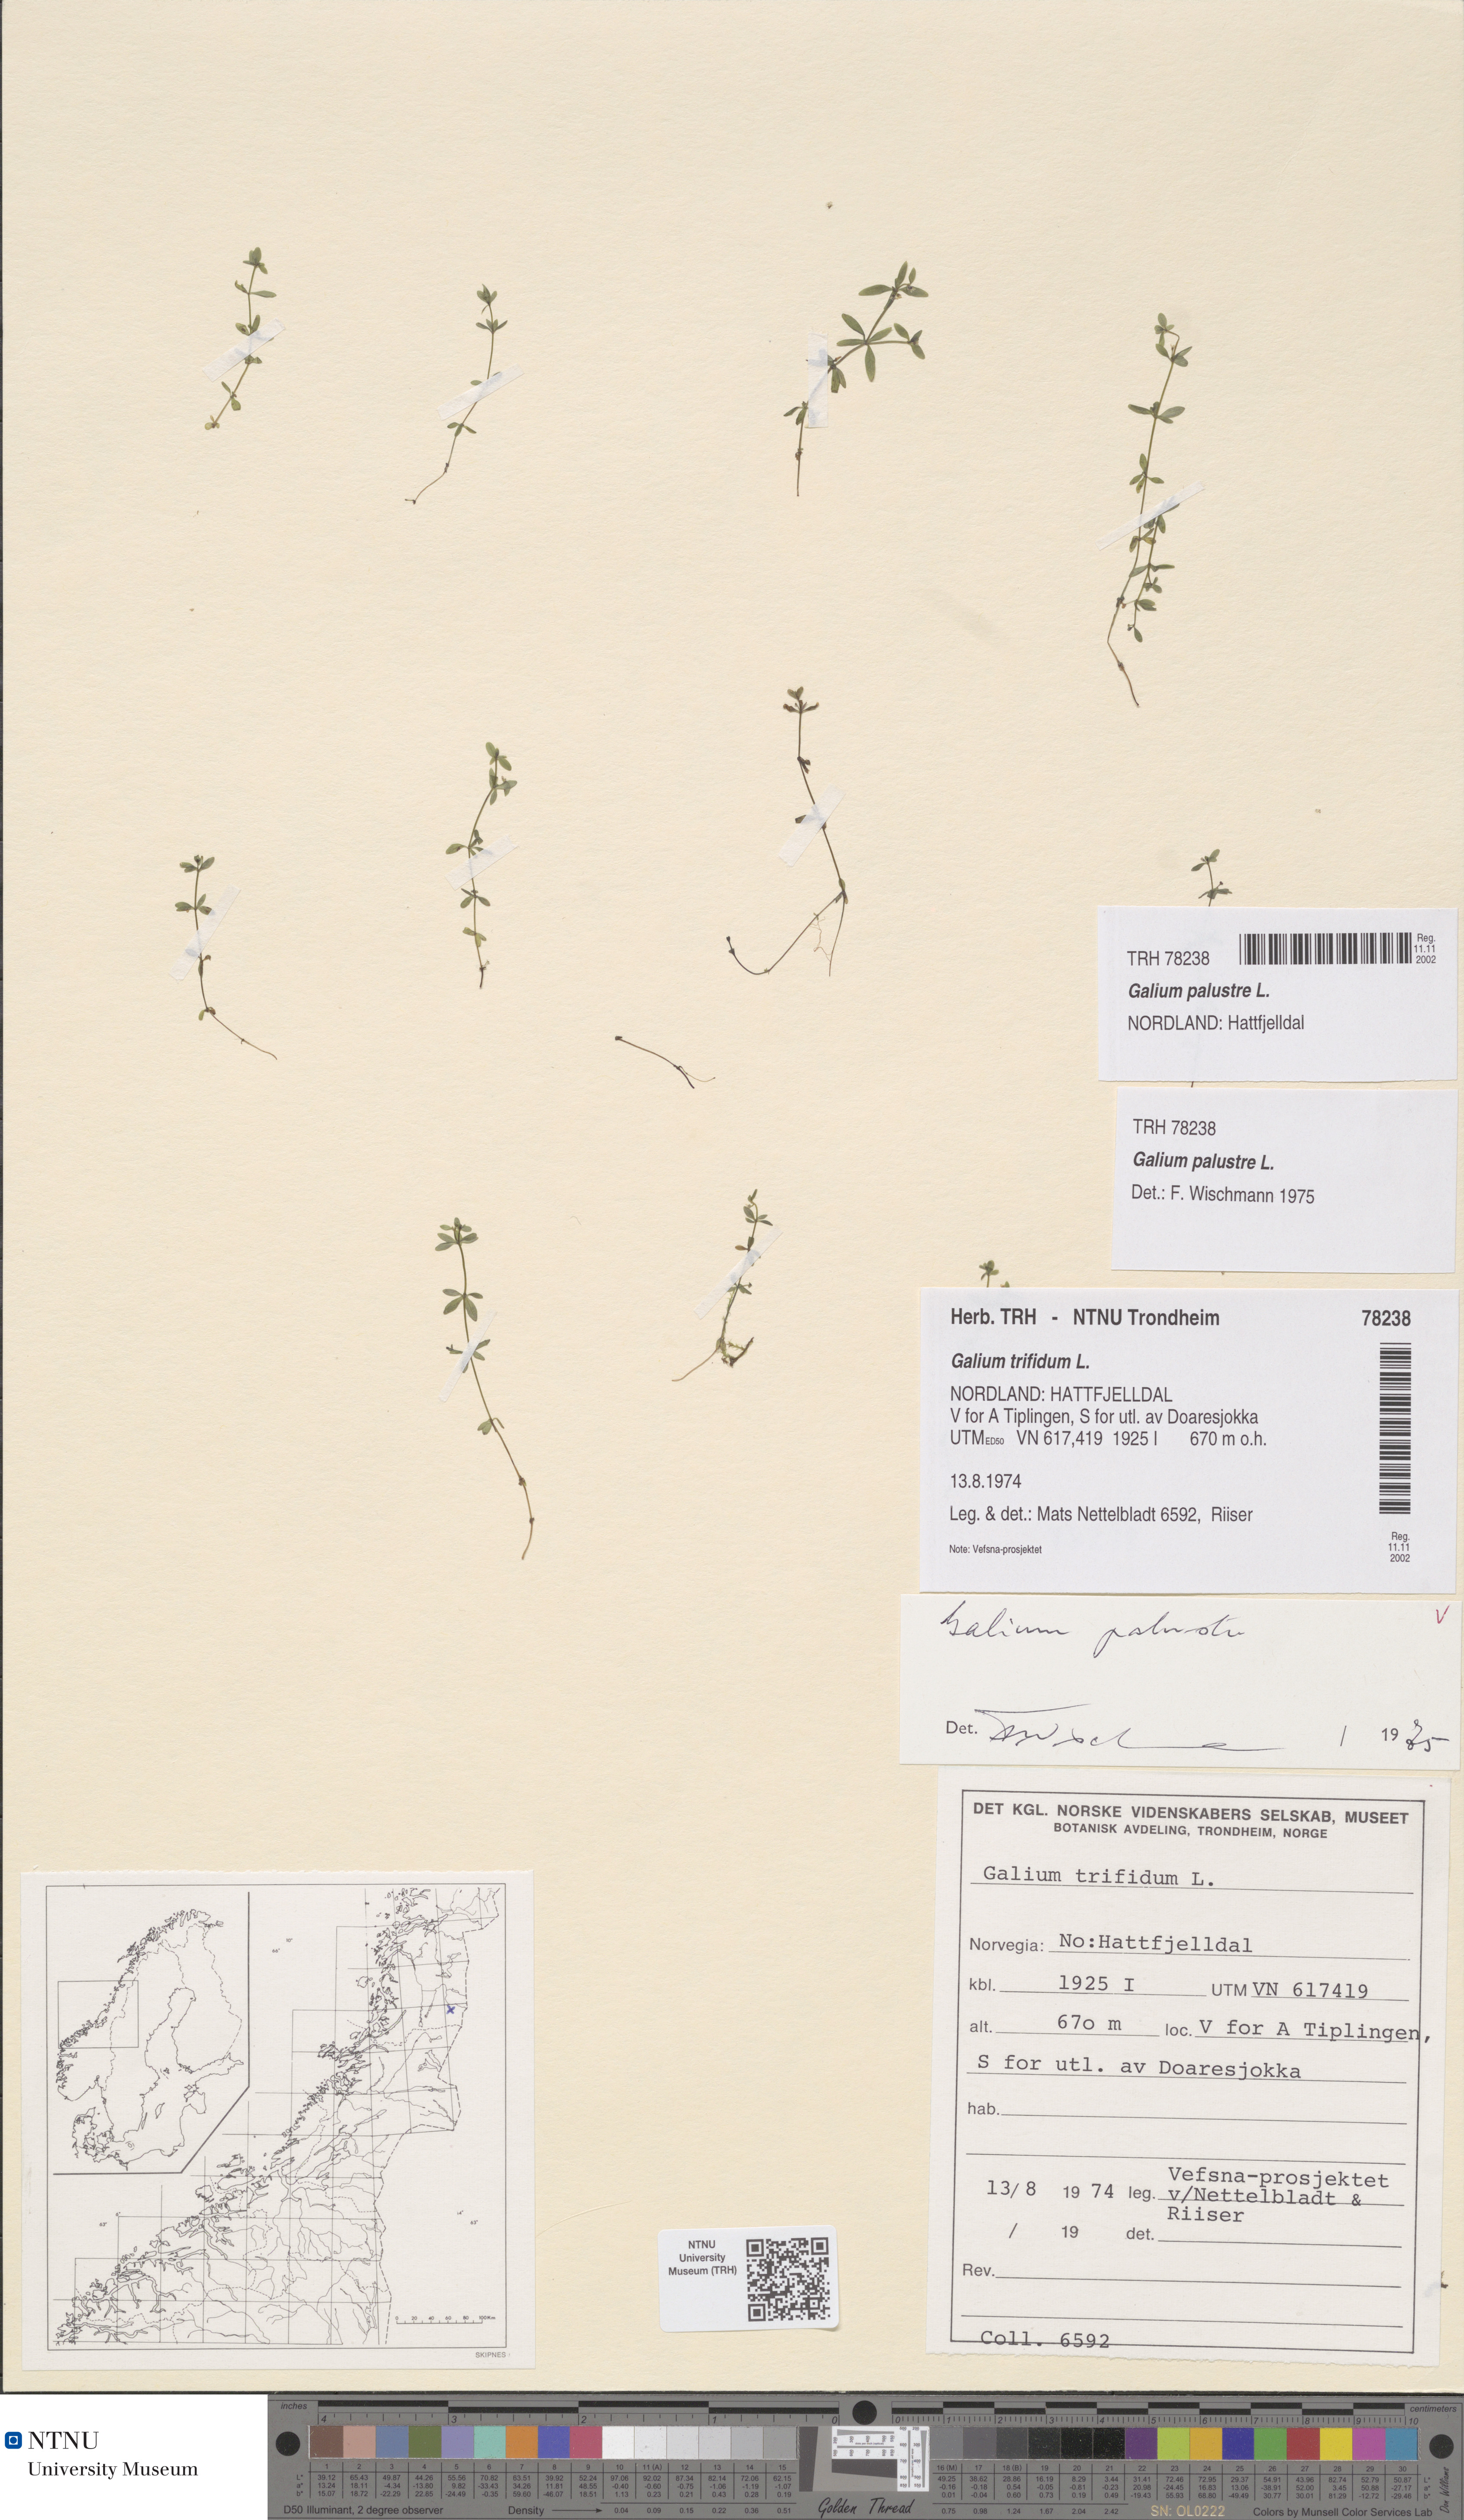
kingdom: Plantae
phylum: Tracheophyta
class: Magnoliopsida
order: Gentianales
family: Rubiaceae
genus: Galium
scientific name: Galium palustre
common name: Common marsh-bedstraw
